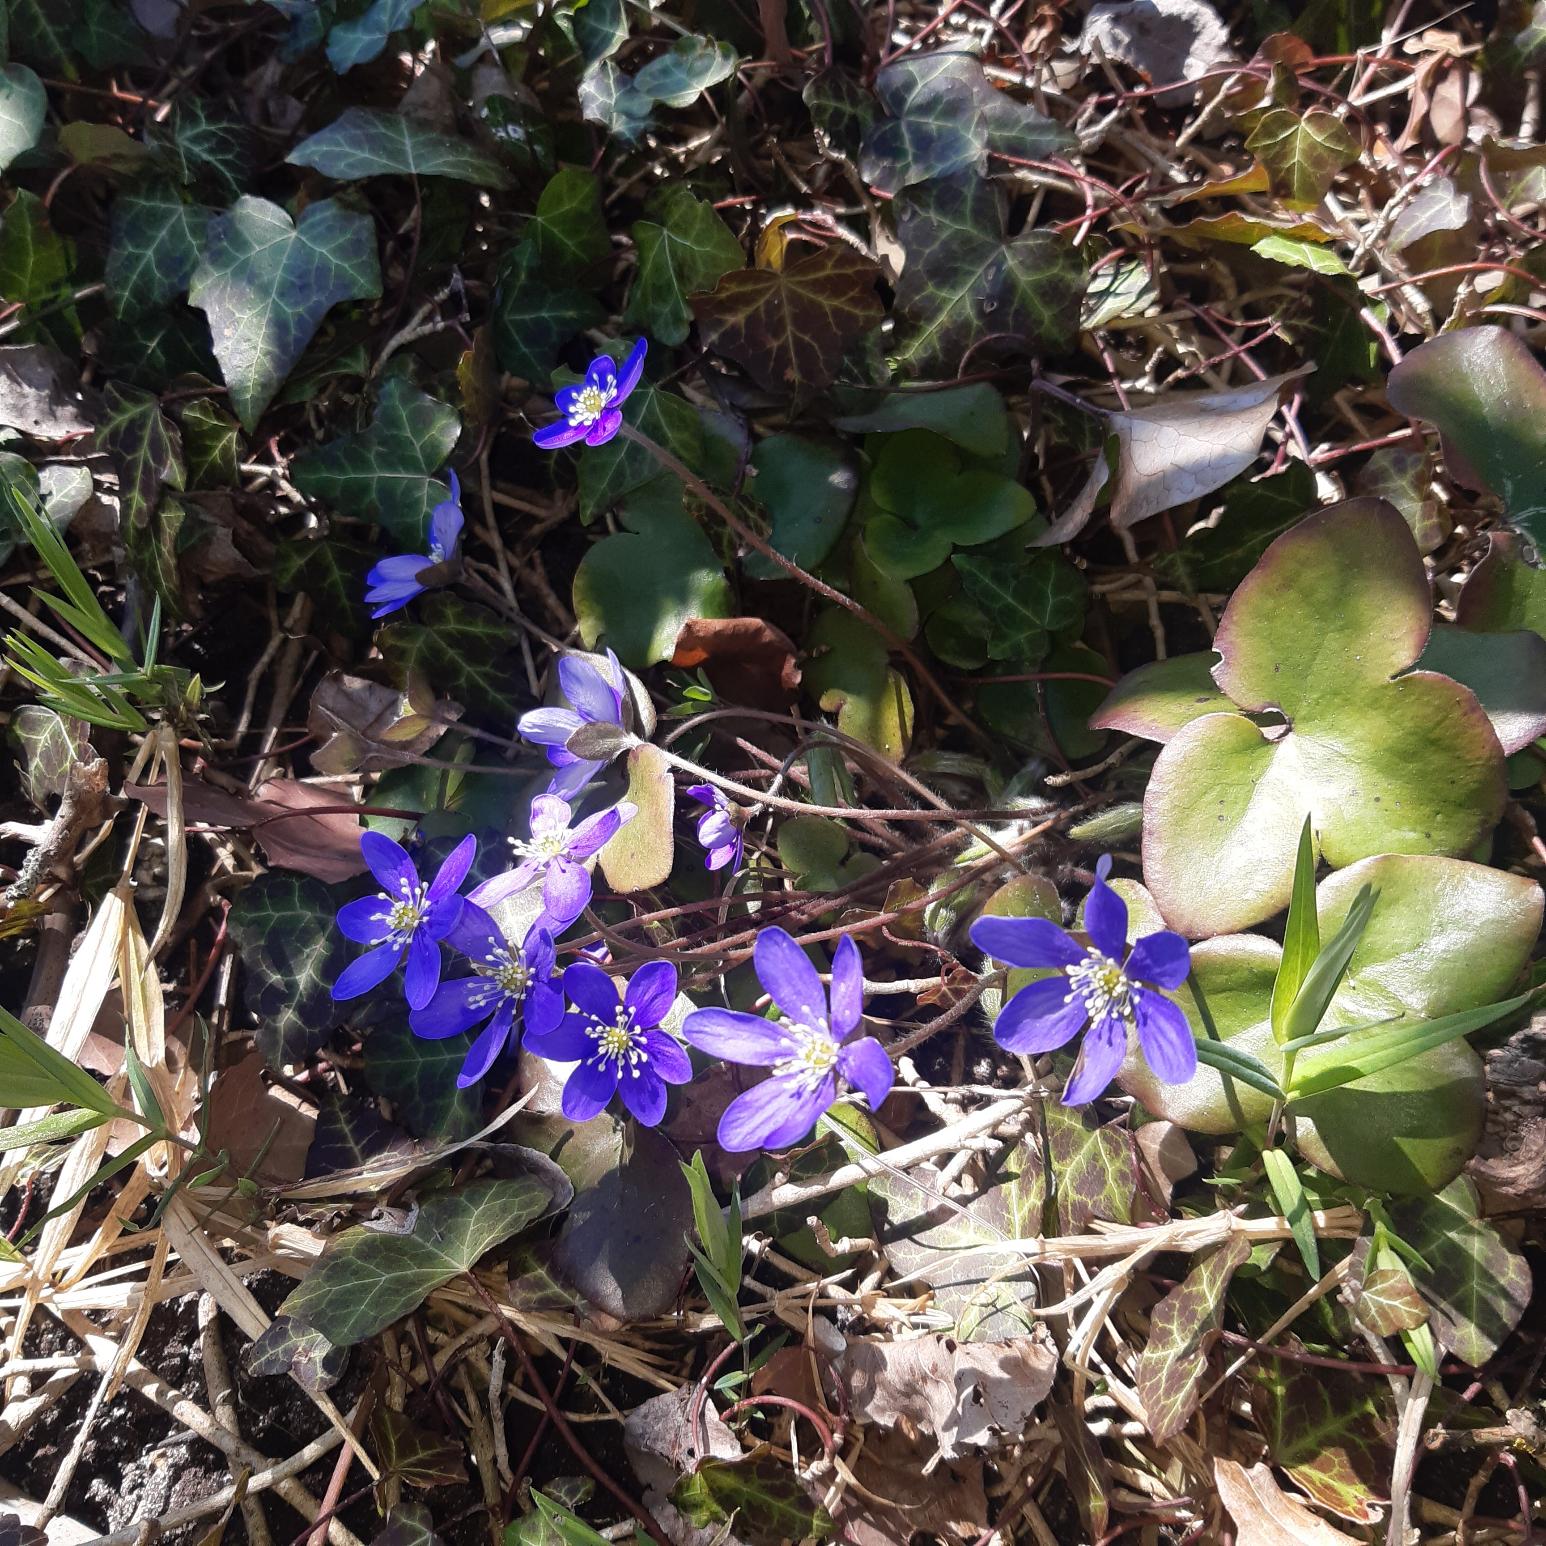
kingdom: Plantae
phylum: Tracheophyta
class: Magnoliopsida
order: Ranunculales
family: Ranunculaceae
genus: Hepatica
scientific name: Hepatica nobilis
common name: Blå anemone
